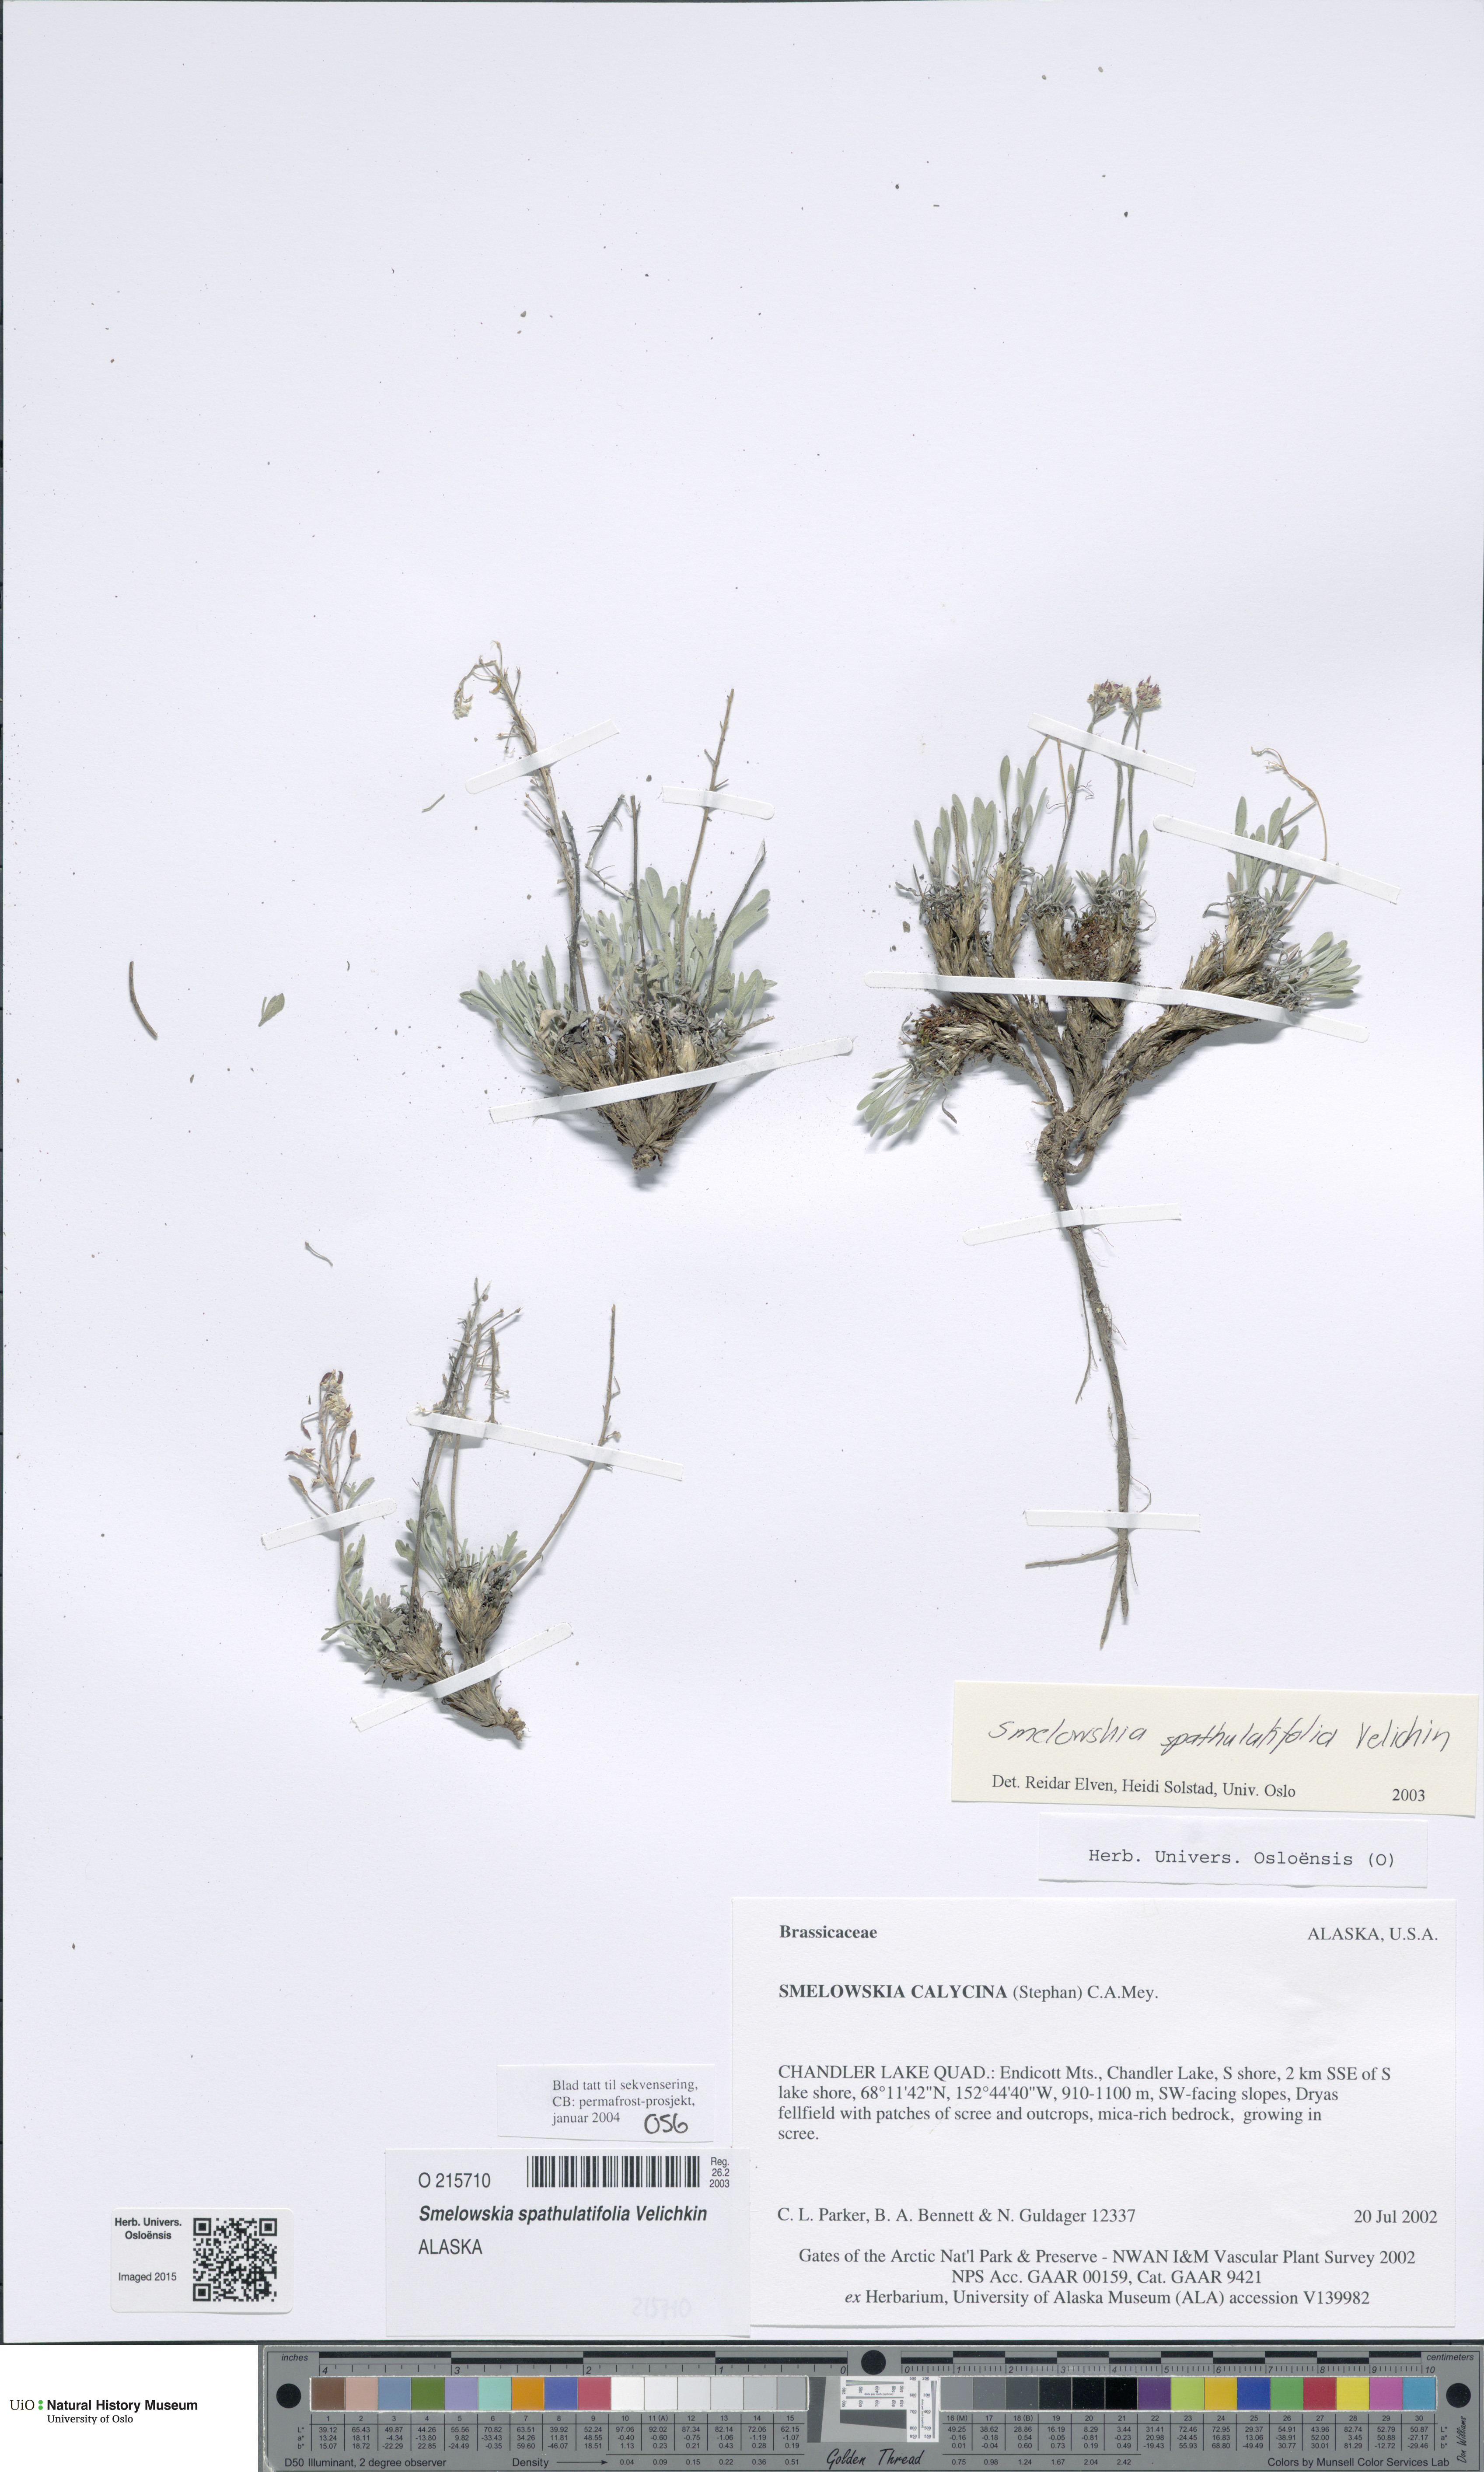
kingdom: Plantae
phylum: Tracheophyta
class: Magnoliopsida
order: Brassicales
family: Brassicaceae
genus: Smelowskia
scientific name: Smelowskia porsildii
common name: Jurtzev's smelowskia
